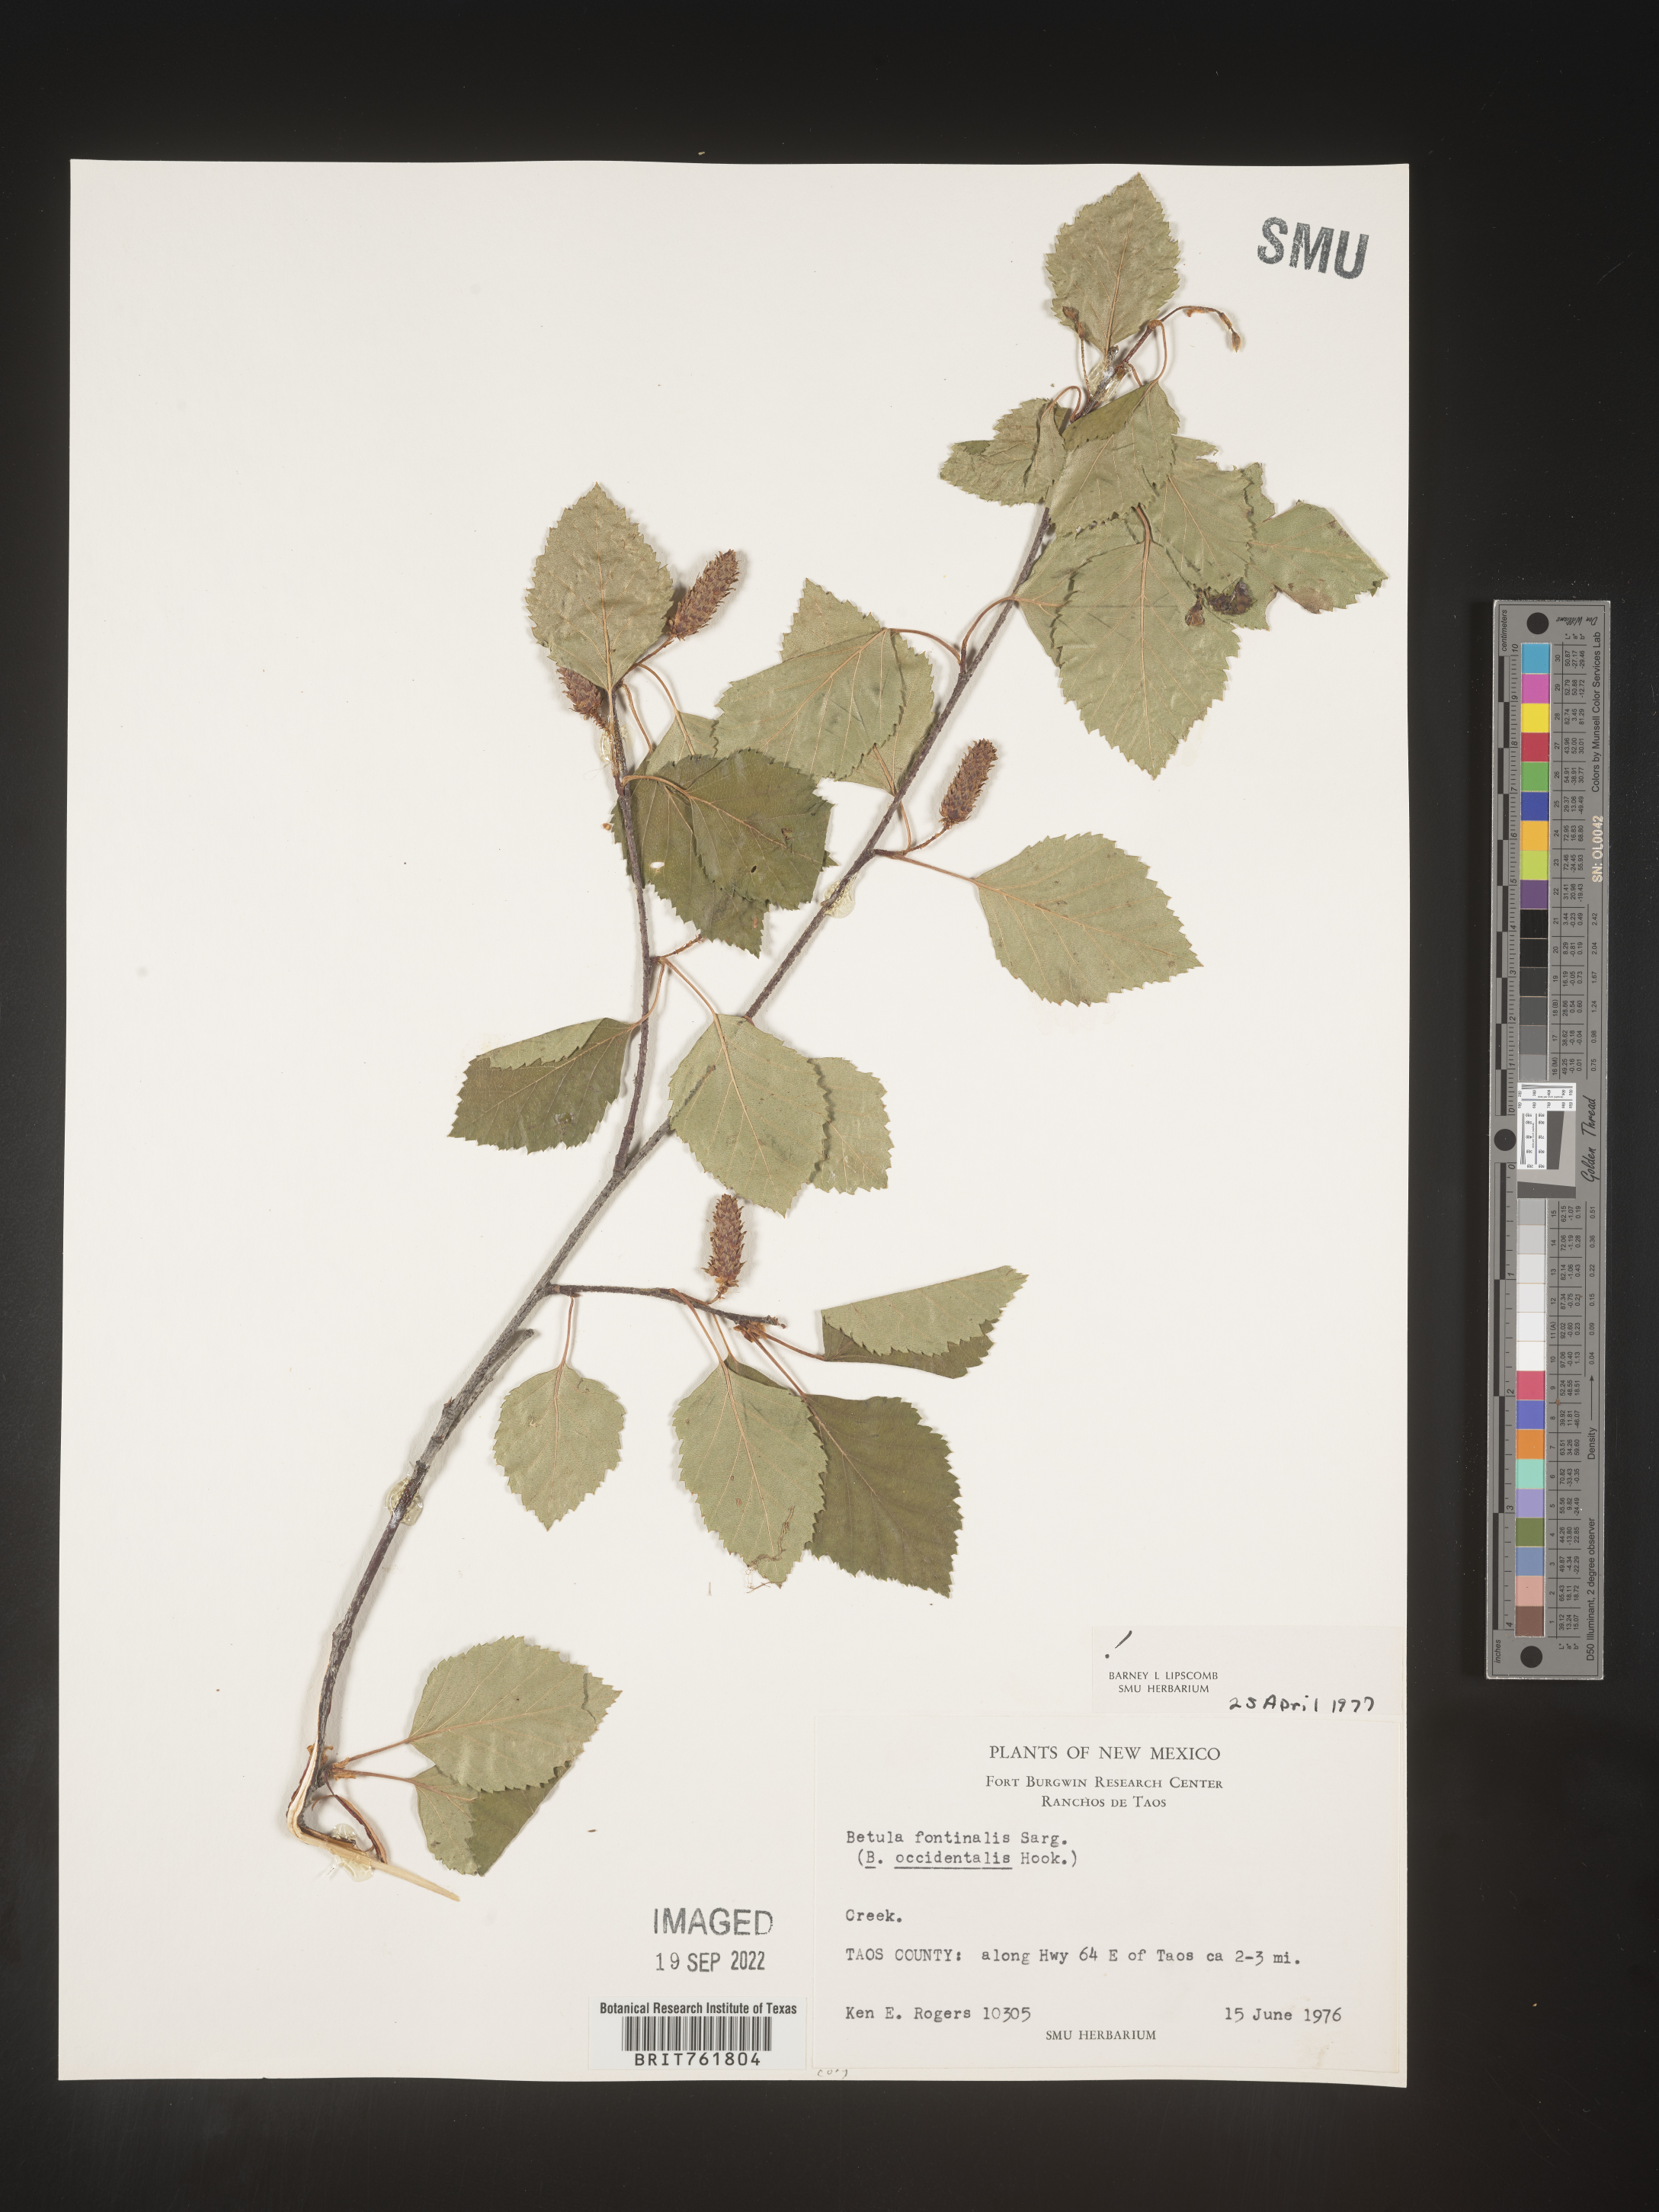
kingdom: Plantae
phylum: Tracheophyta
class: Magnoliopsida
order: Fagales
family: Betulaceae
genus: Betula
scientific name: Betula occidentalis
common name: River birch
